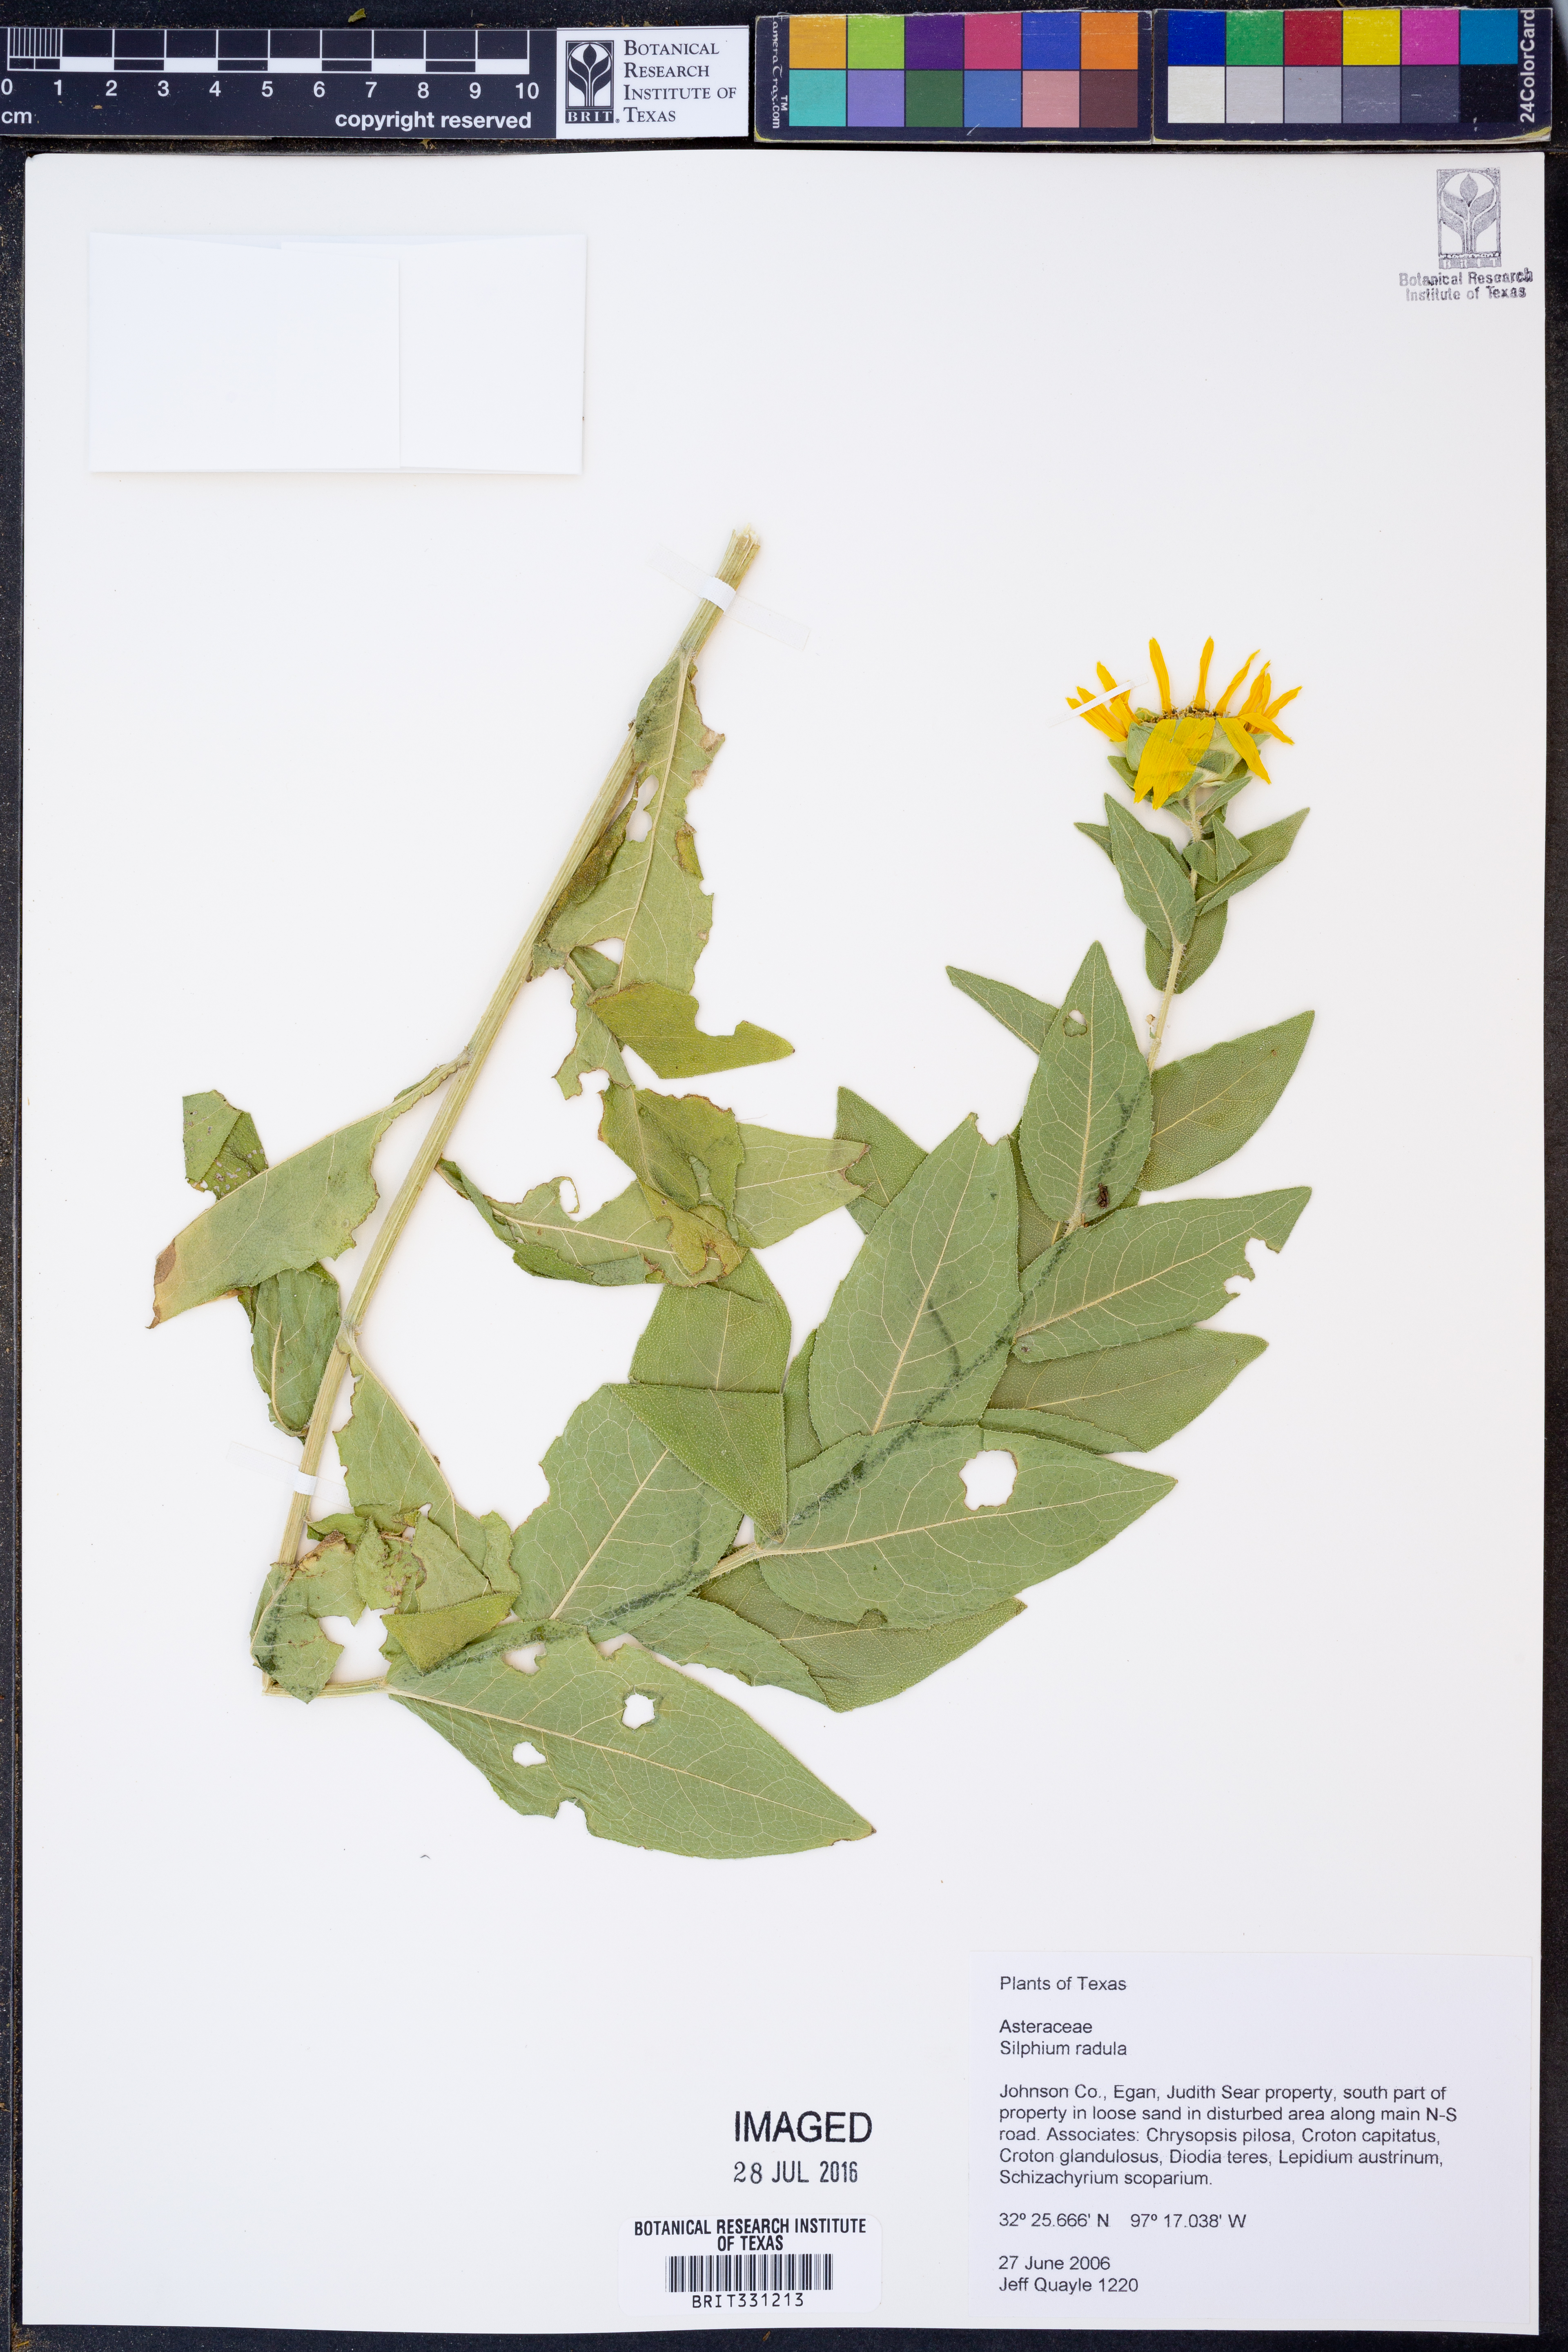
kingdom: Plantae
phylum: Tracheophyta
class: Magnoliopsida
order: Asterales
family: Asteraceae
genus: Silphium
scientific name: Silphium radula
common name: Roughleaf rosinweed
